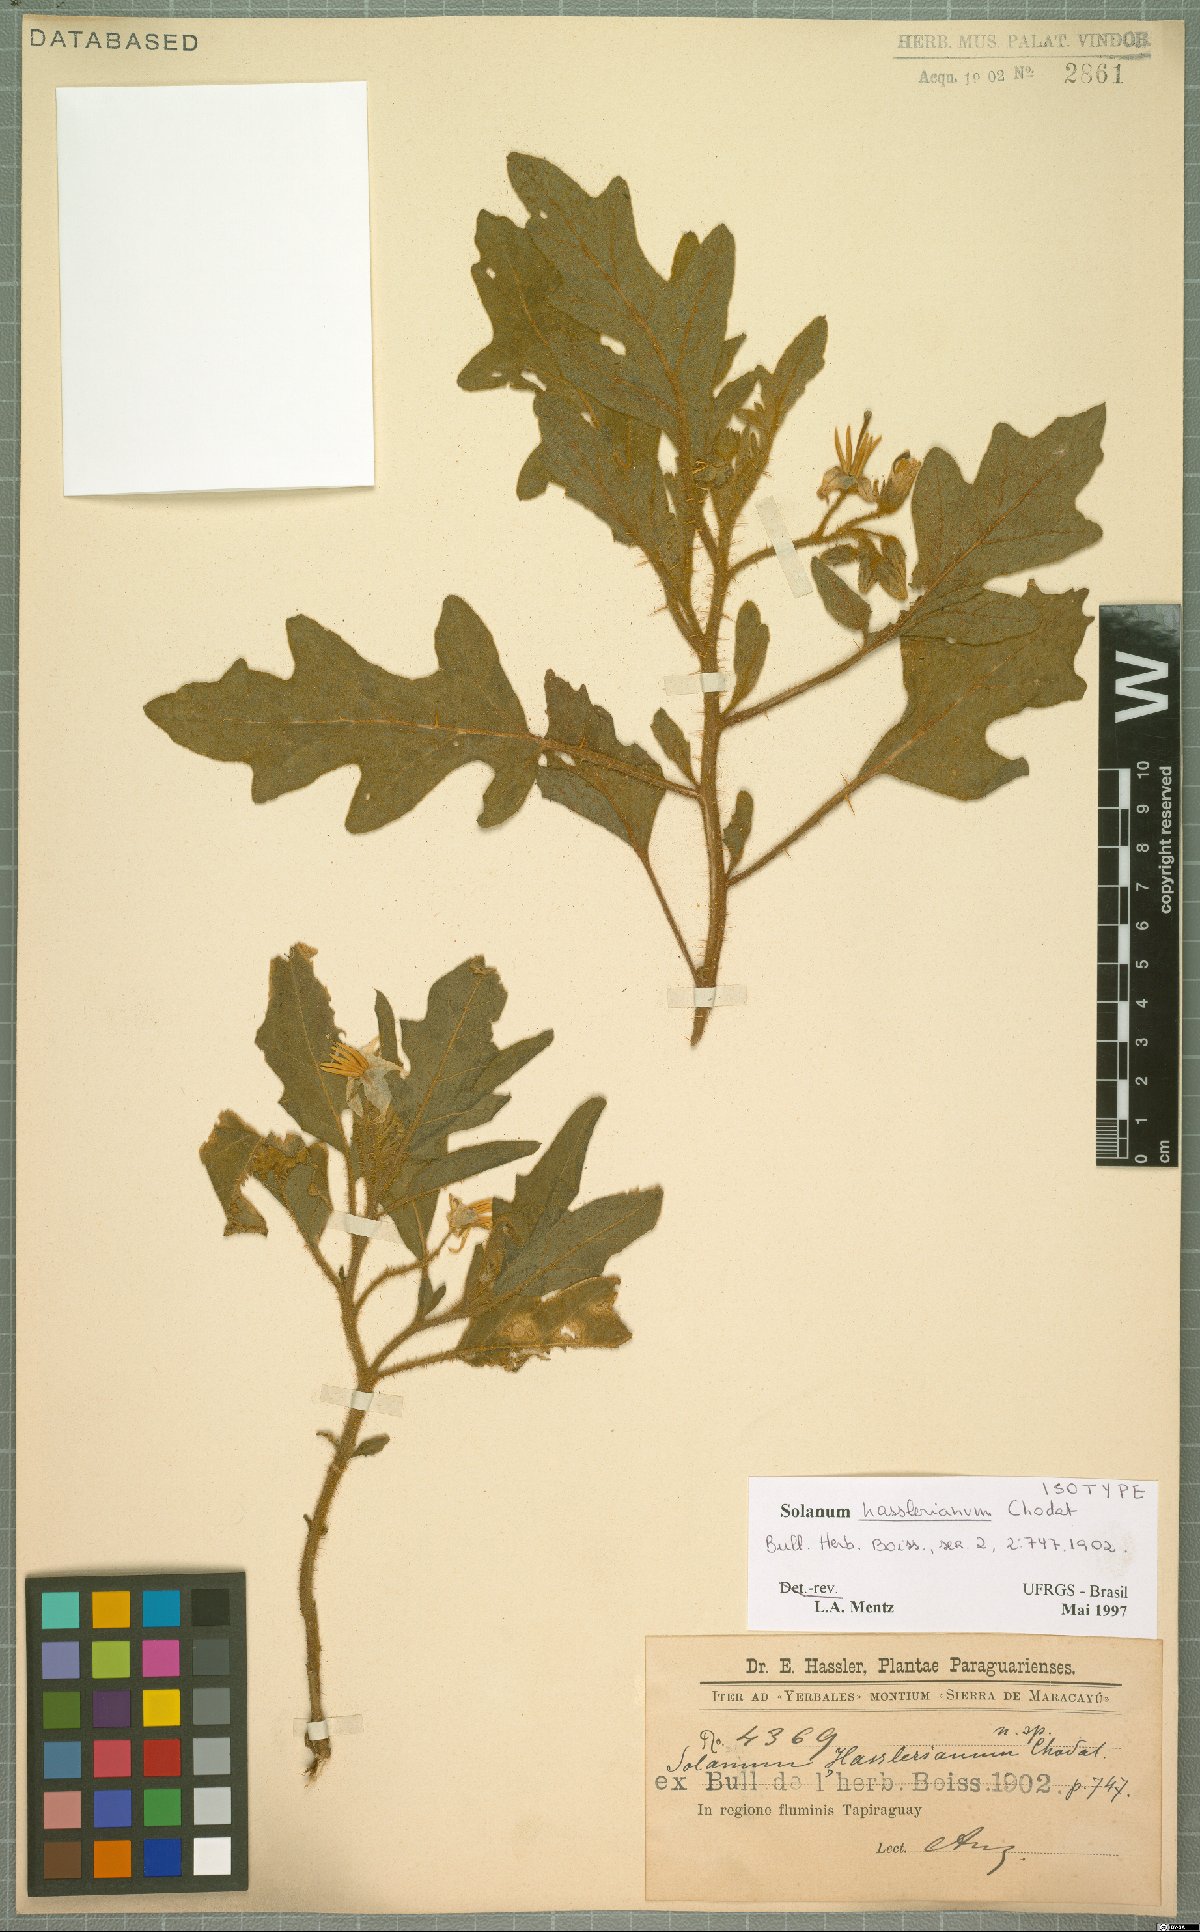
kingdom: Plantae
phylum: Tracheophyta
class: Magnoliopsida
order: Solanales
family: Solanaceae
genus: Solanum
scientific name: Solanum hasslerianum
